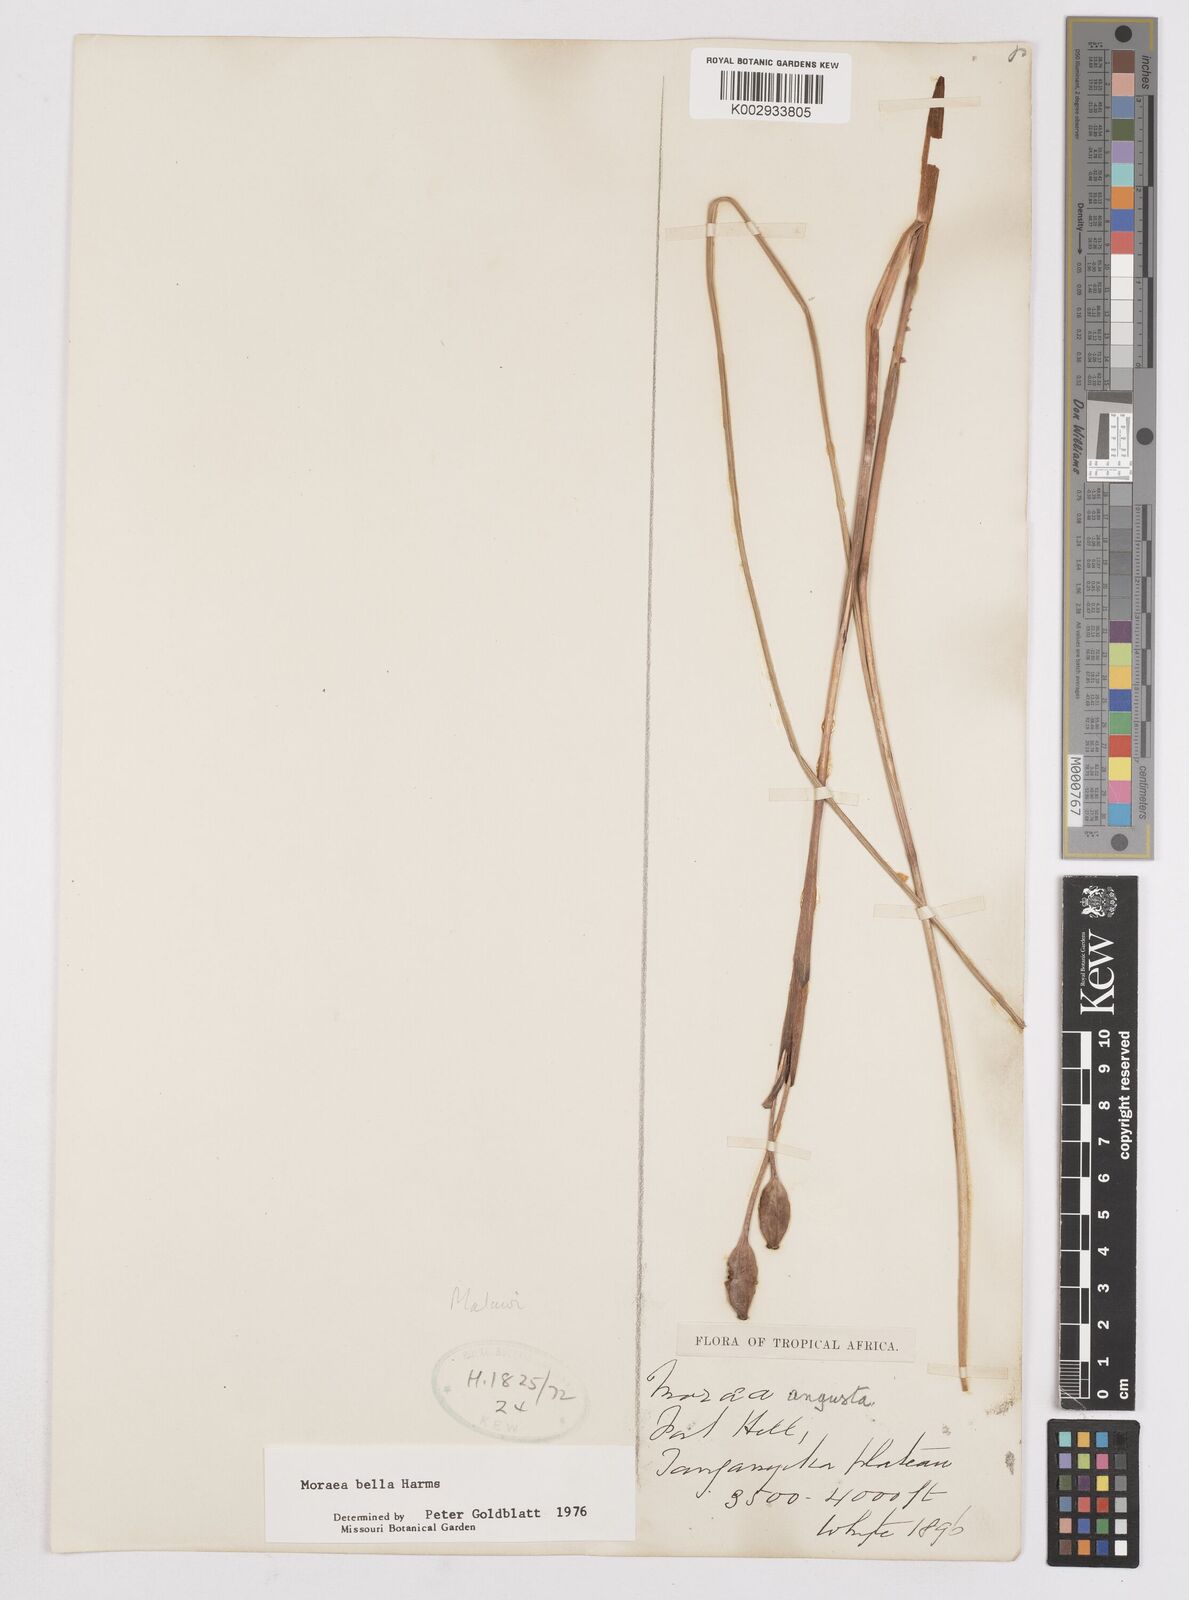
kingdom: Plantae
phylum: Tracheophyta
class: Liliopsida
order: Asparagales
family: Iridaceae
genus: Moraea
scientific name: Moraea bella
